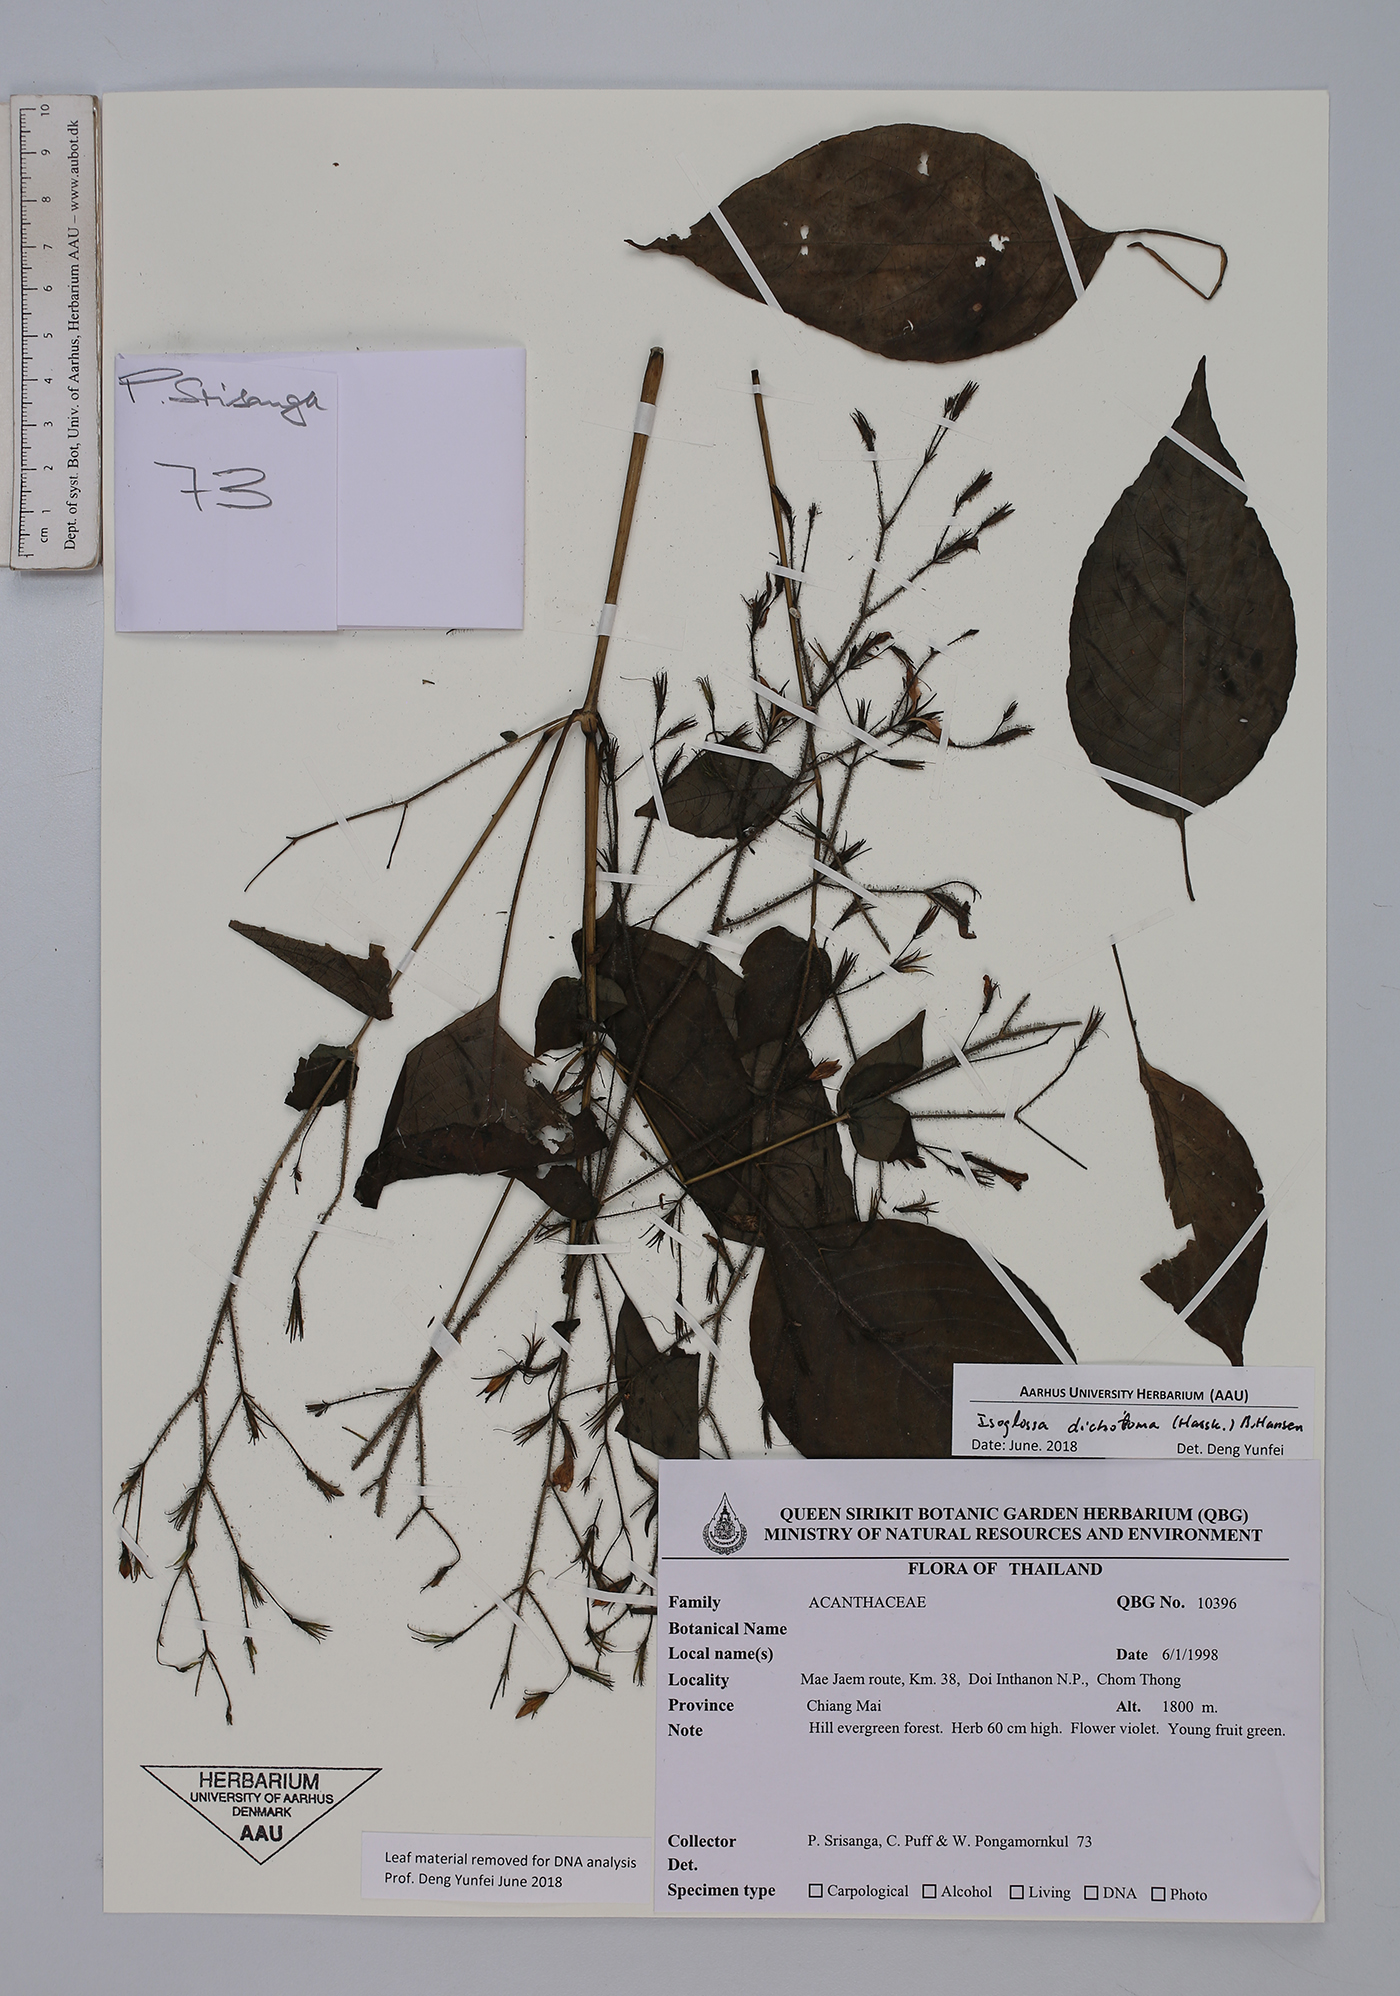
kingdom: Plantae
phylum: Tracheophyta
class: Magnoliopsida
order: Lamiales
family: Acanthaceae
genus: Isoglossa
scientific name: Isoglossa dichotoma
